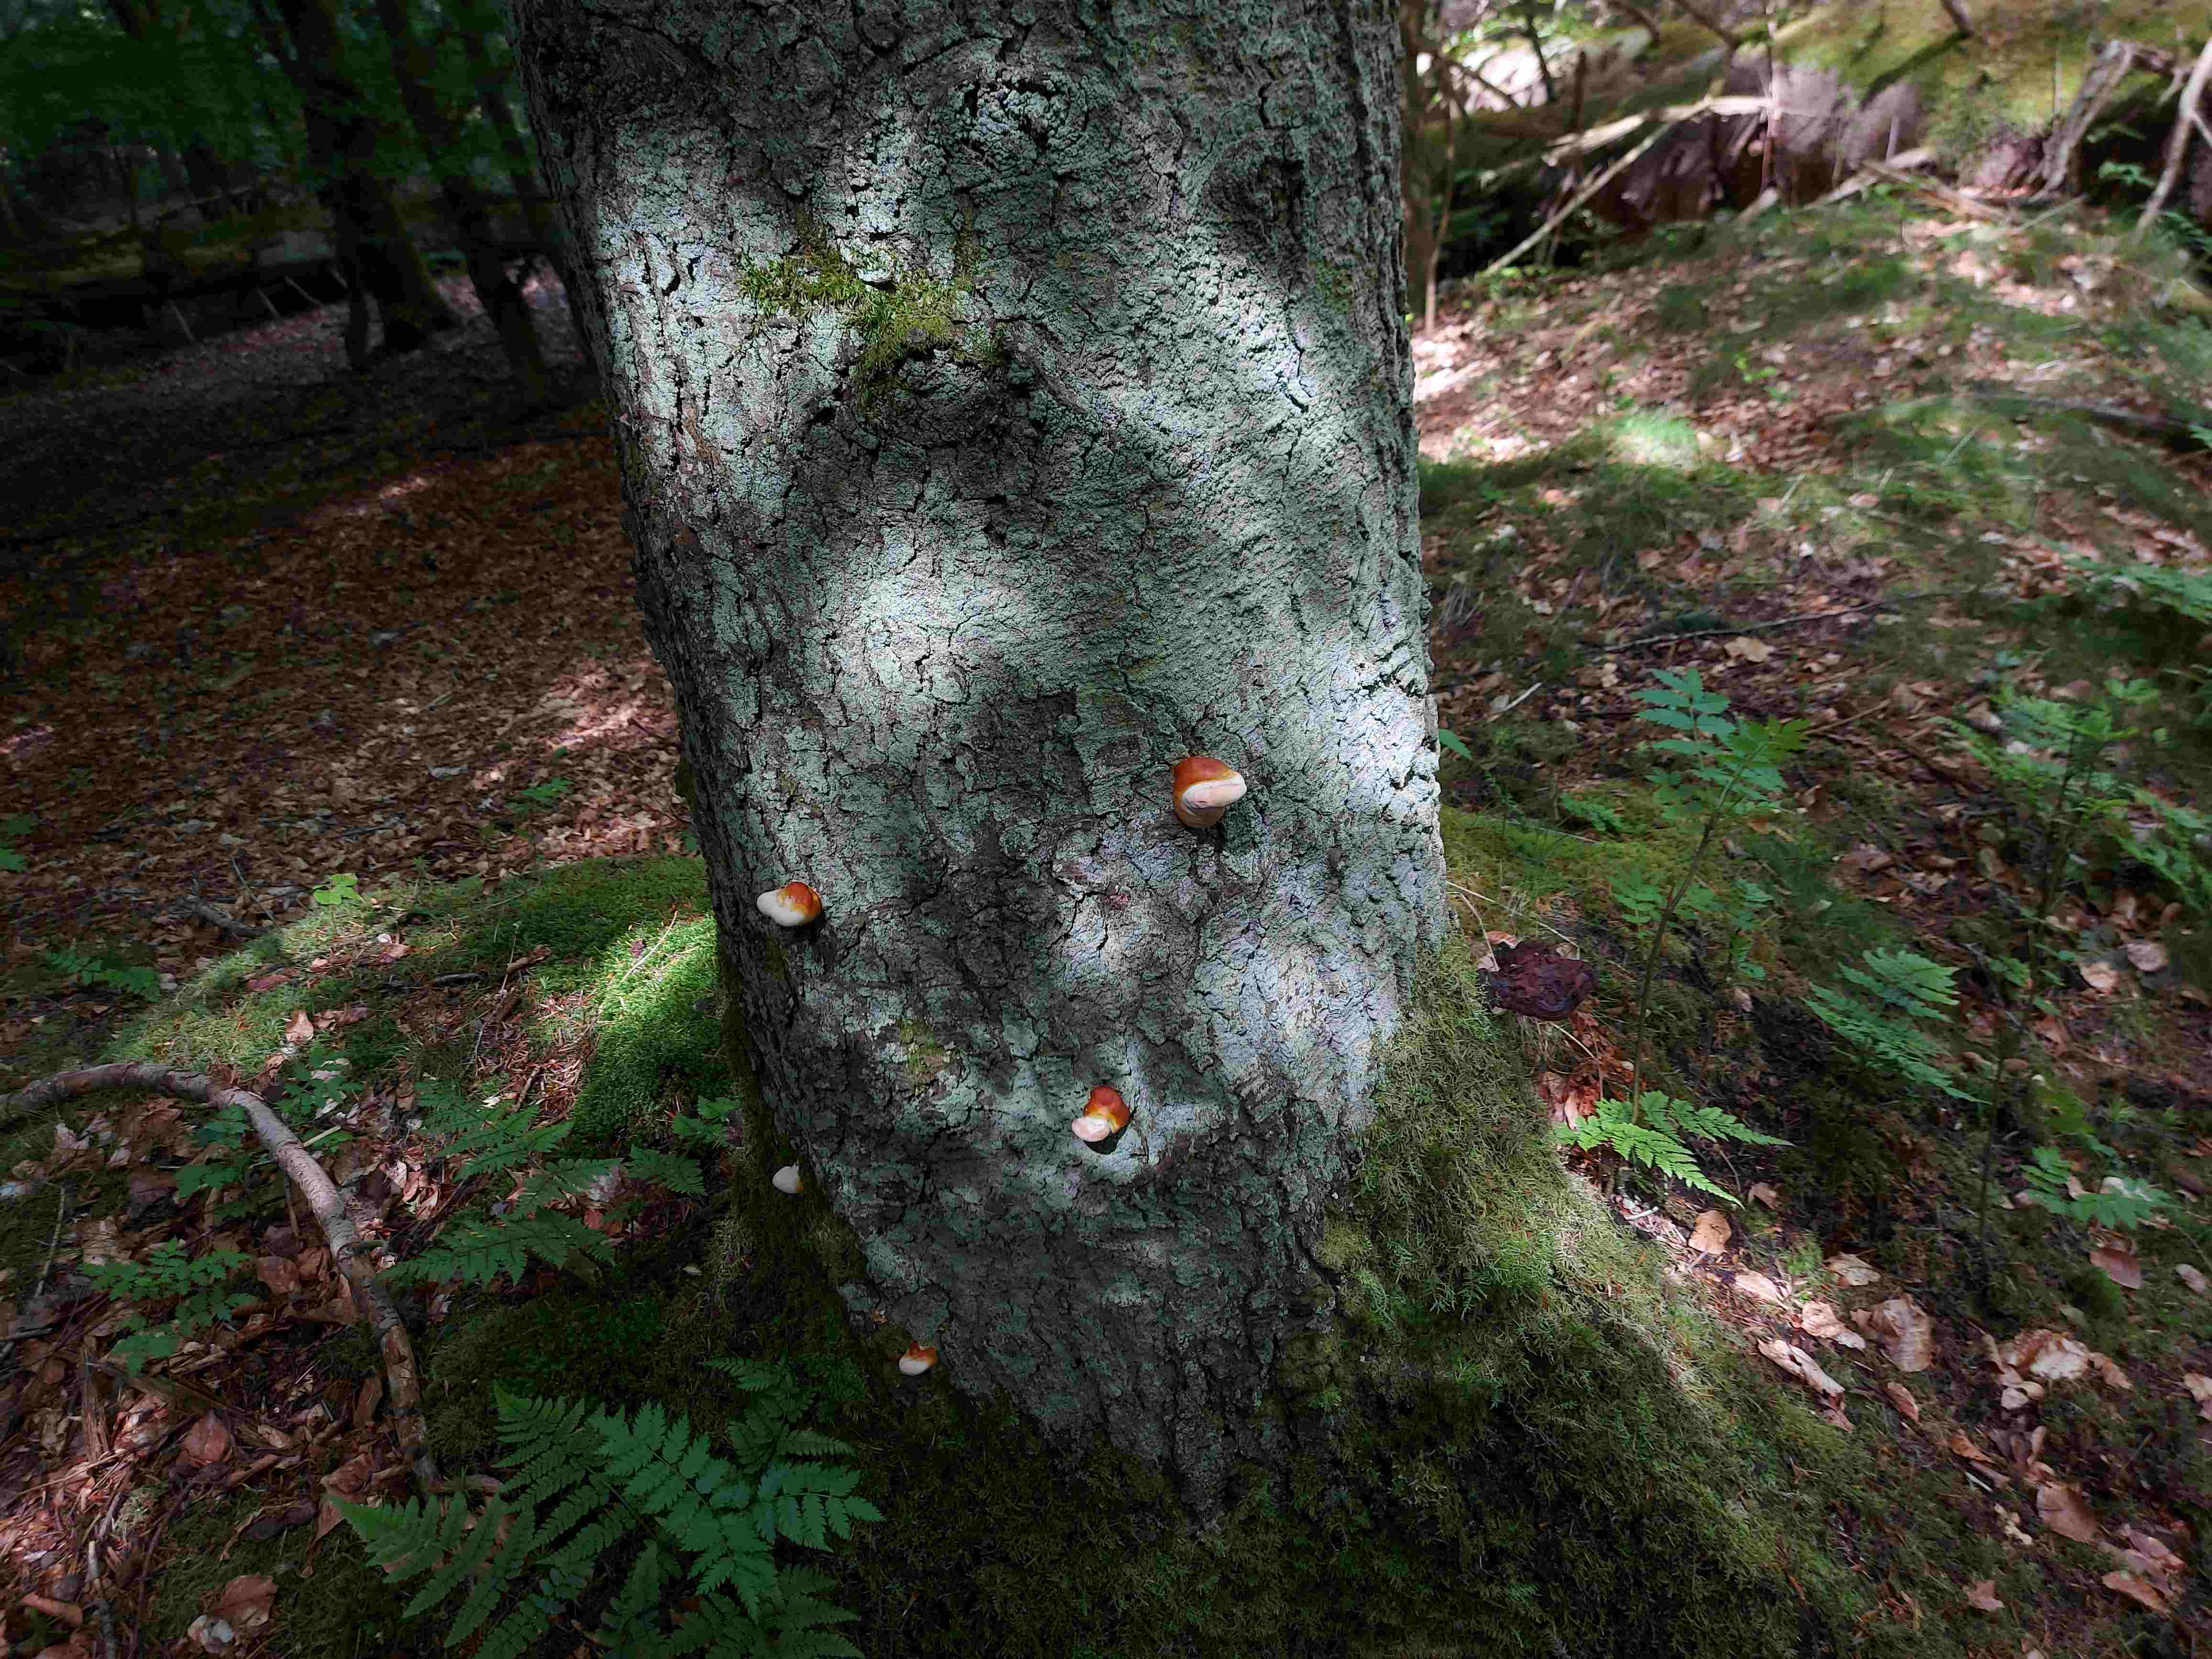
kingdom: Fungi
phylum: Basidiomycota
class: Agaricomycetes
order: Polyporales
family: Polyporaceae
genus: Ganoderma
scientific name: Ganoderma lucidum
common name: skinnende lakporesvamp
